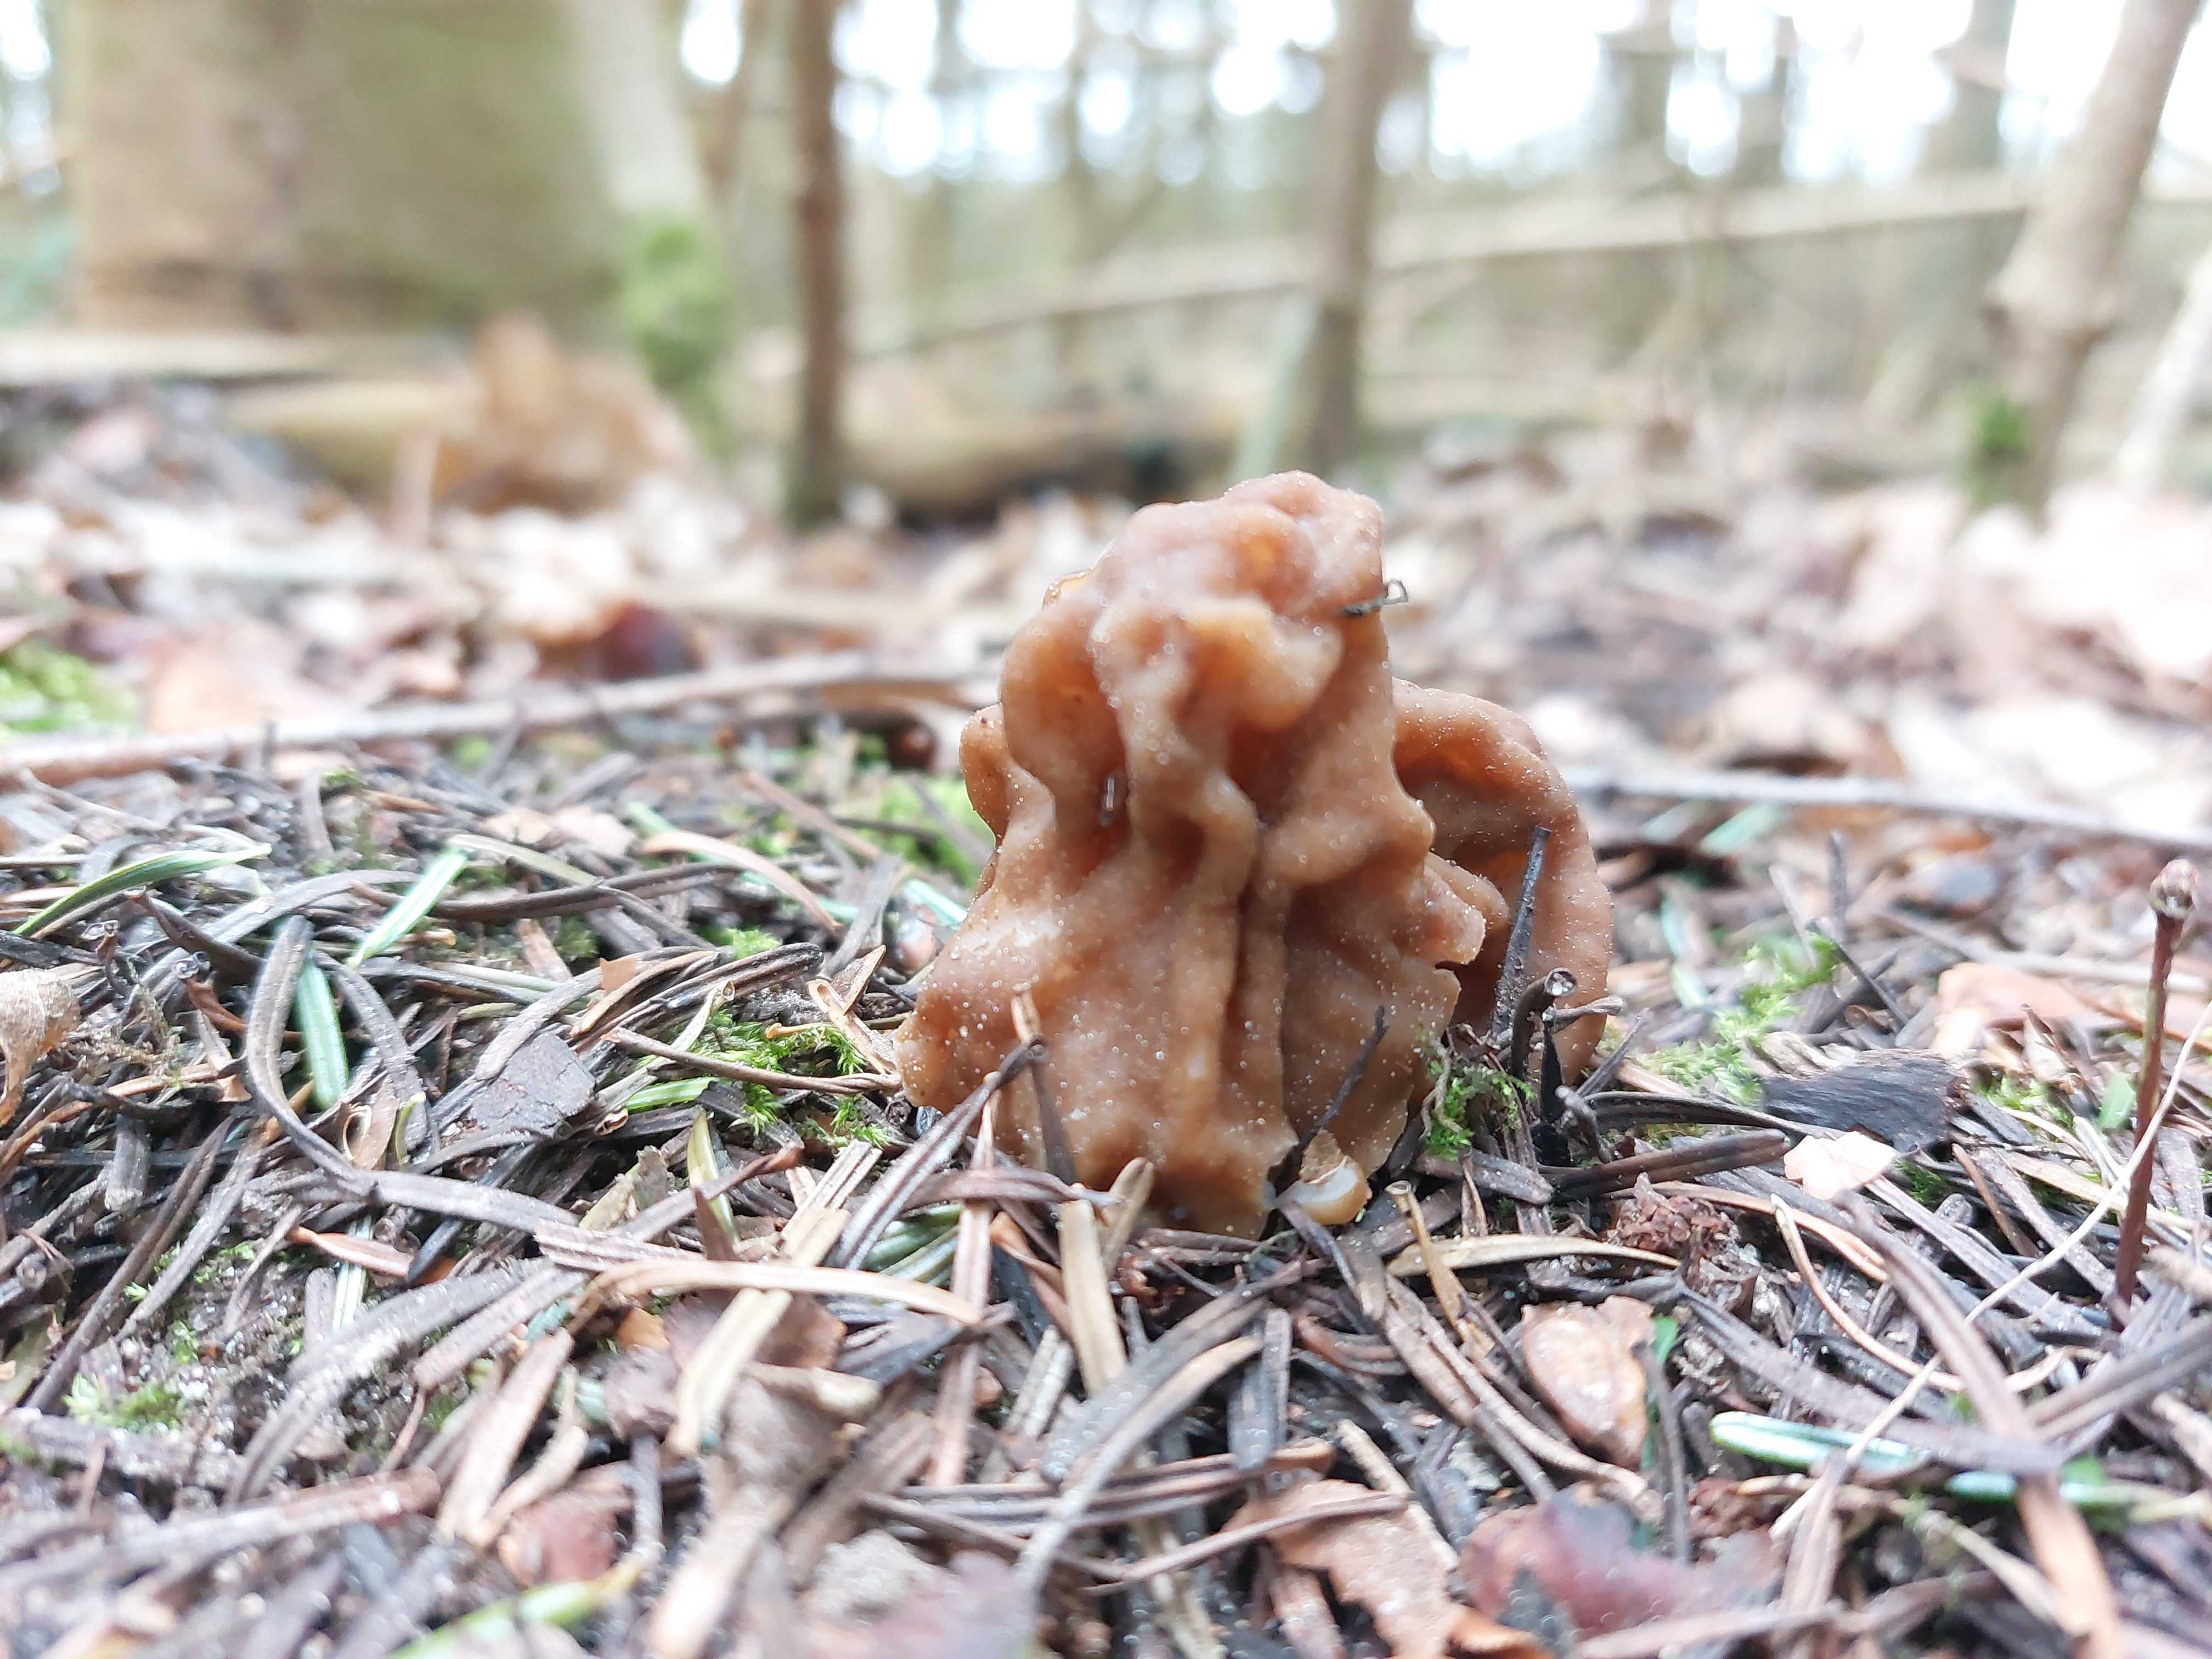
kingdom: Fungi
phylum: Ascomycota
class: Pezizomycetes
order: Pezizales
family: Discinaceae
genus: Gyromitra
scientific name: Gyromitra gigas
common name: kæmpe-stenmorkel
